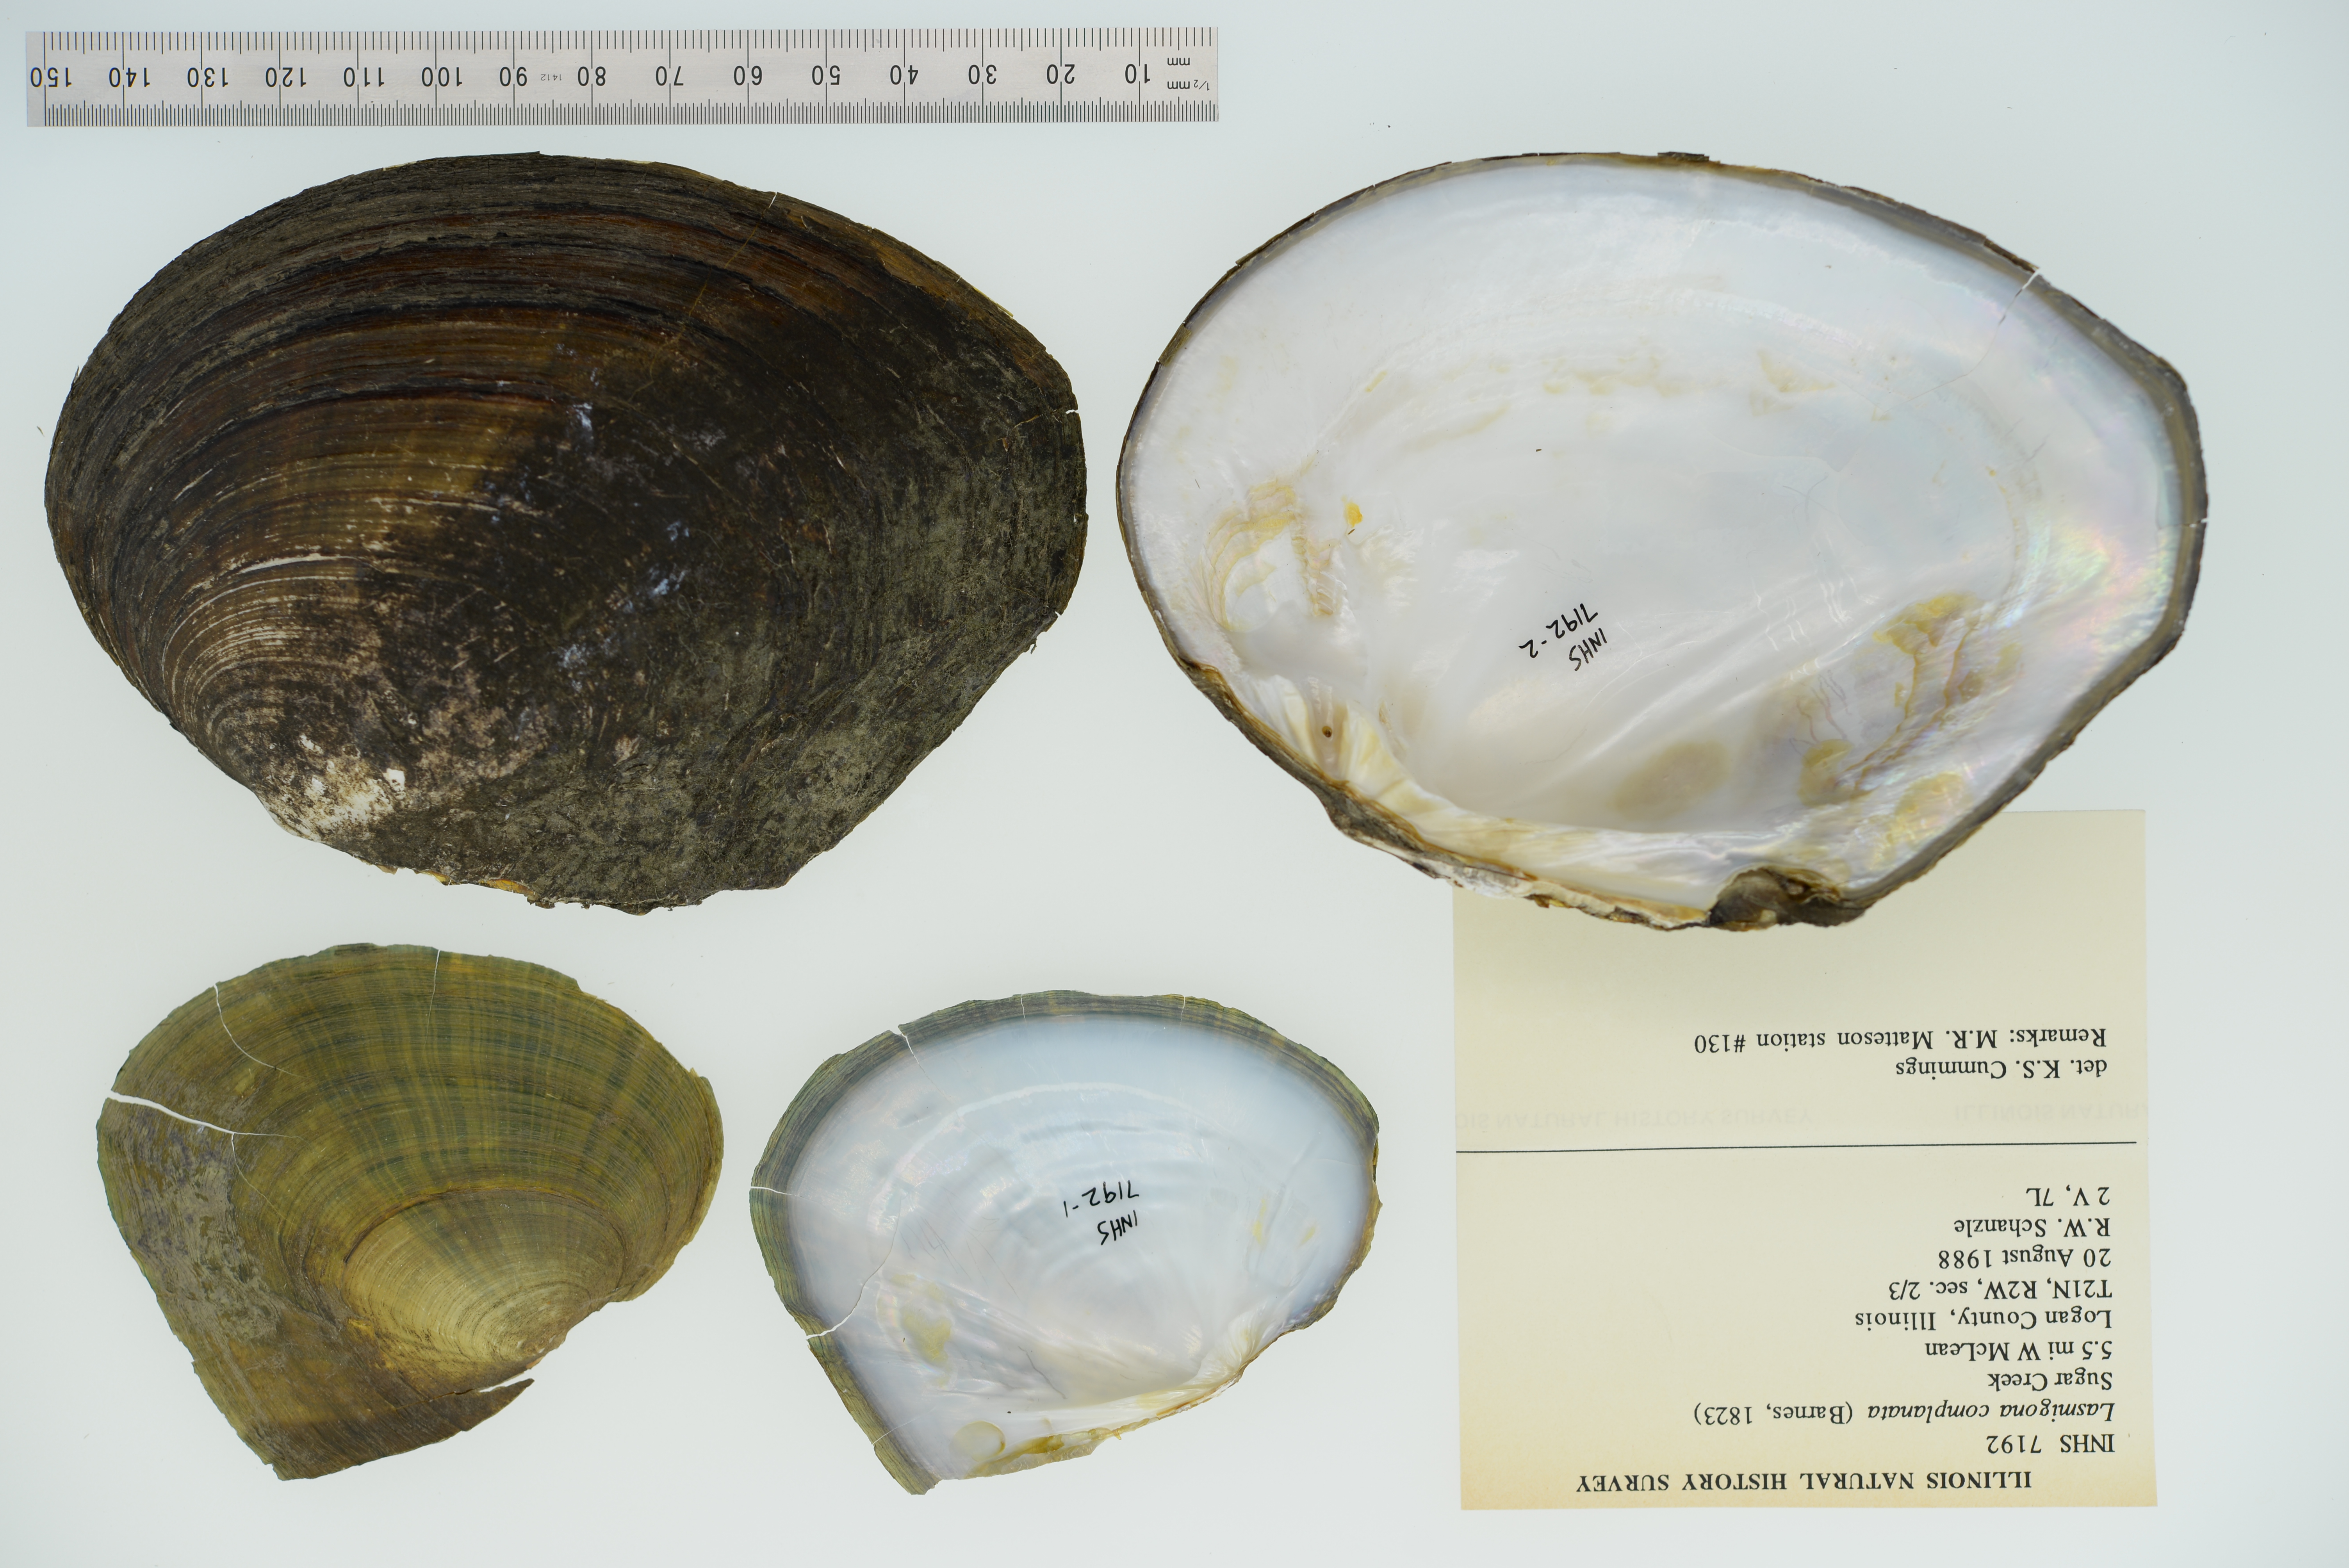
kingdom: Animalia
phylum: Mollusca
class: Bivalvia
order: Unionida
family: Unionidae
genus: Lasmigona
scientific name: Lasmigona complanata
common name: White heelsplitter
